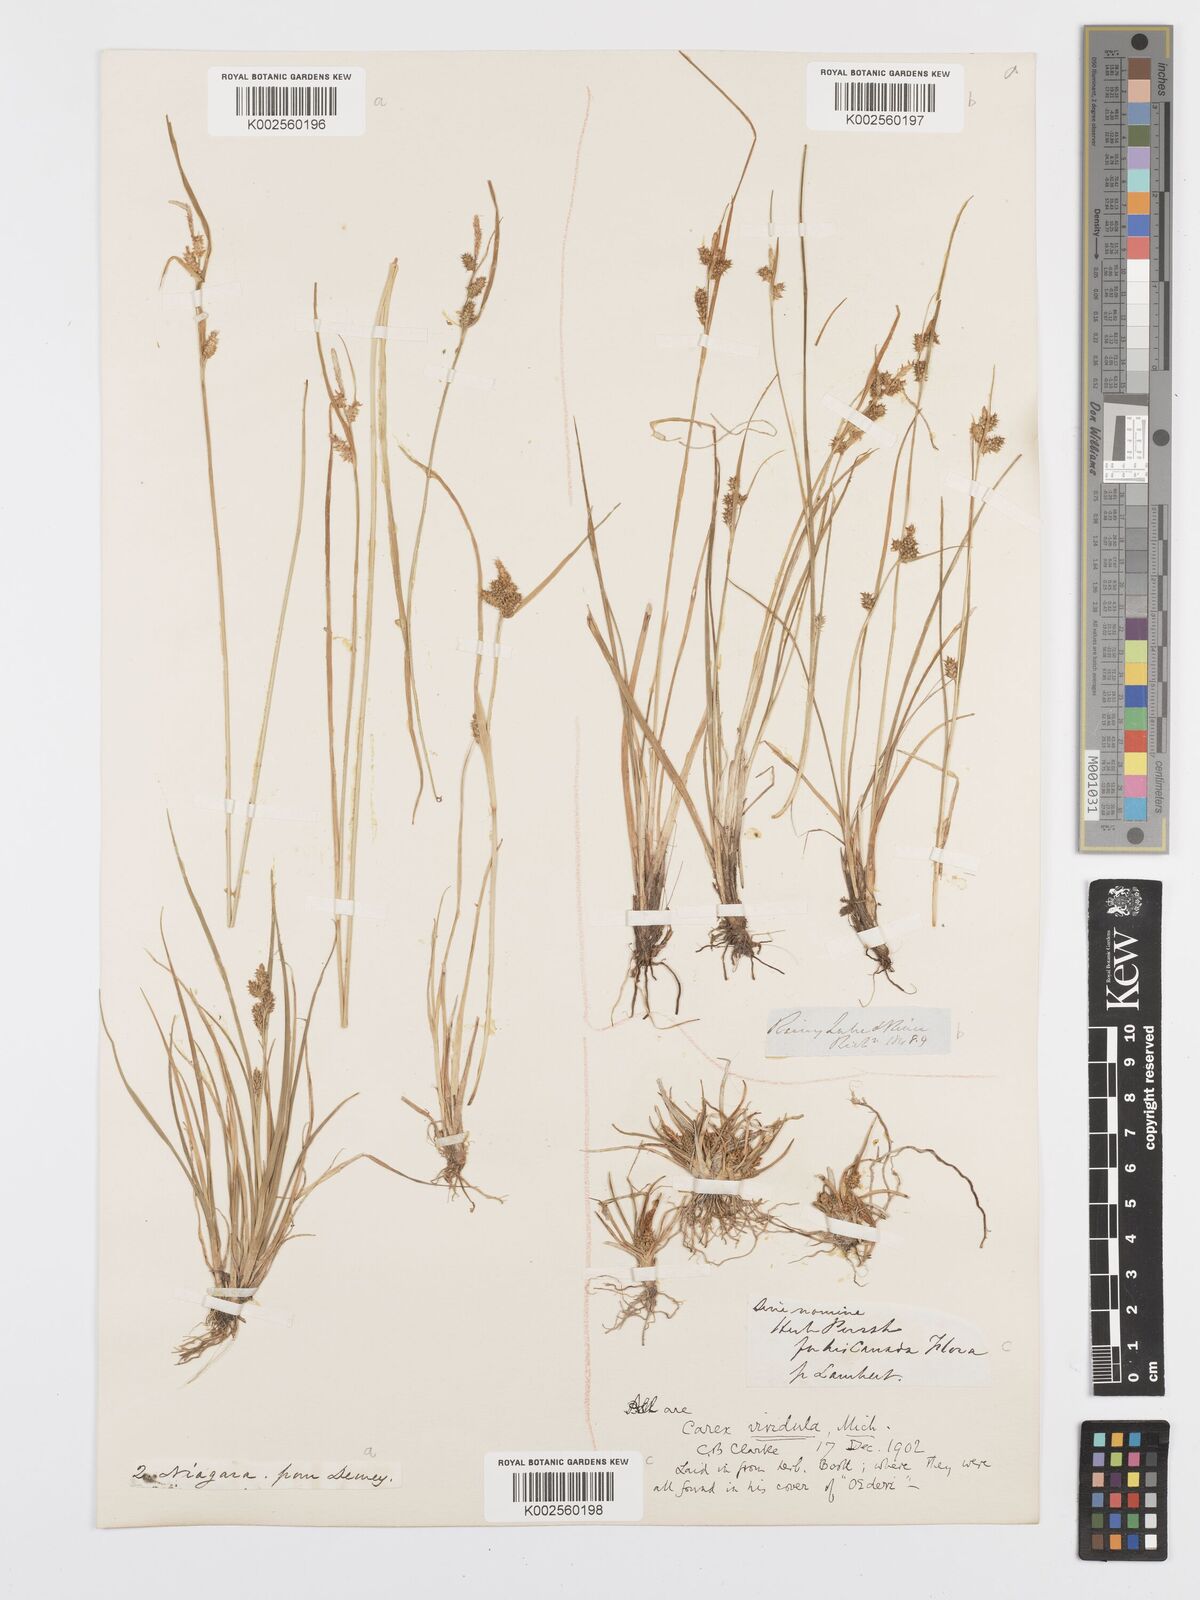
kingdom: Plantae
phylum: Tracheophyta
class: Liliopsida
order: Poales
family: Cyperaceae
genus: Carex
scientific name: Carex oederi
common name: Common & small-fruited yellow-sedge
